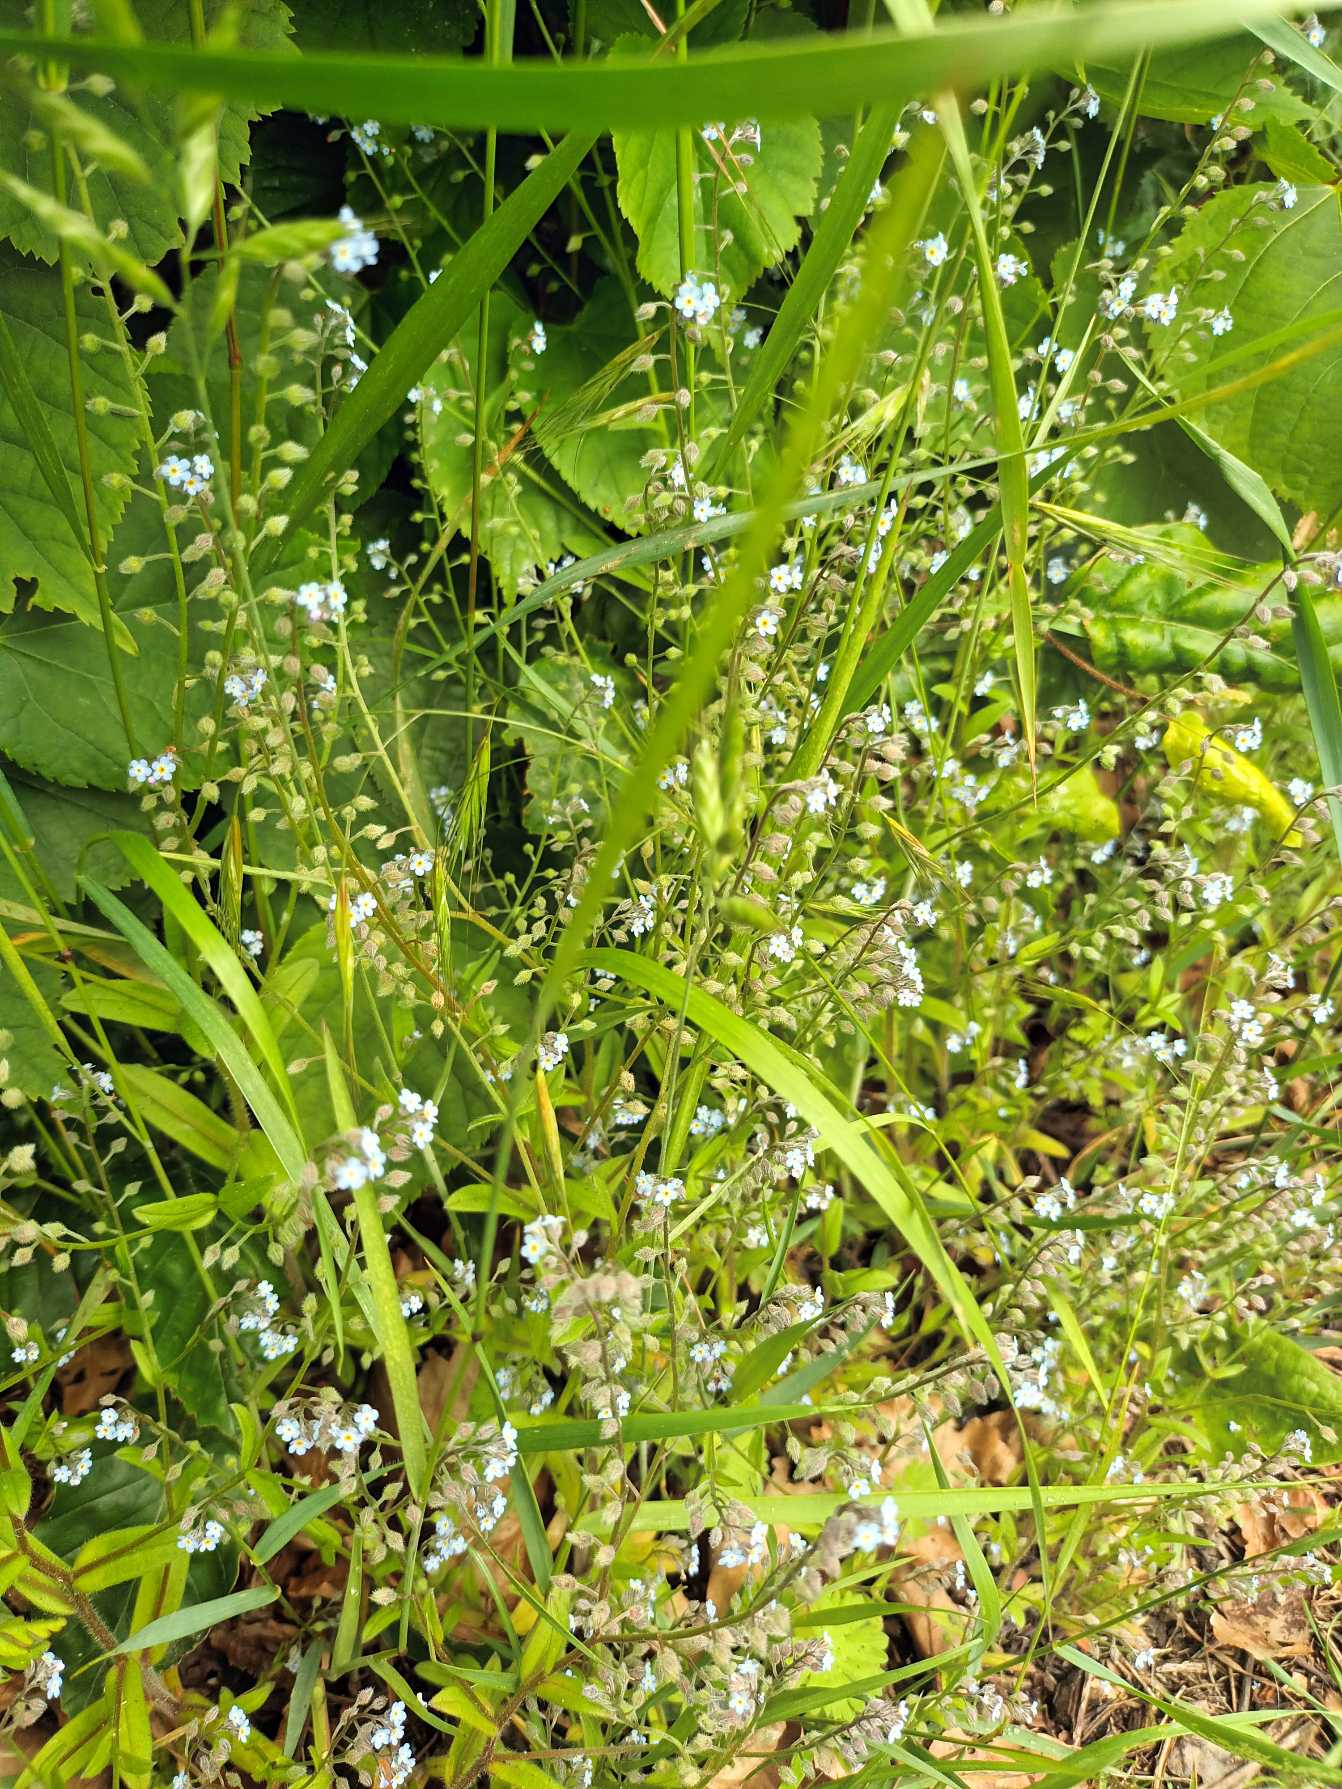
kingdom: Plantae
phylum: Tracheophyta
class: Magnoliopsida
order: Boraginales
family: Boraginaceae
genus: Myosotis
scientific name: Myosotis ramosissima
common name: Bakke-forglemmigej
